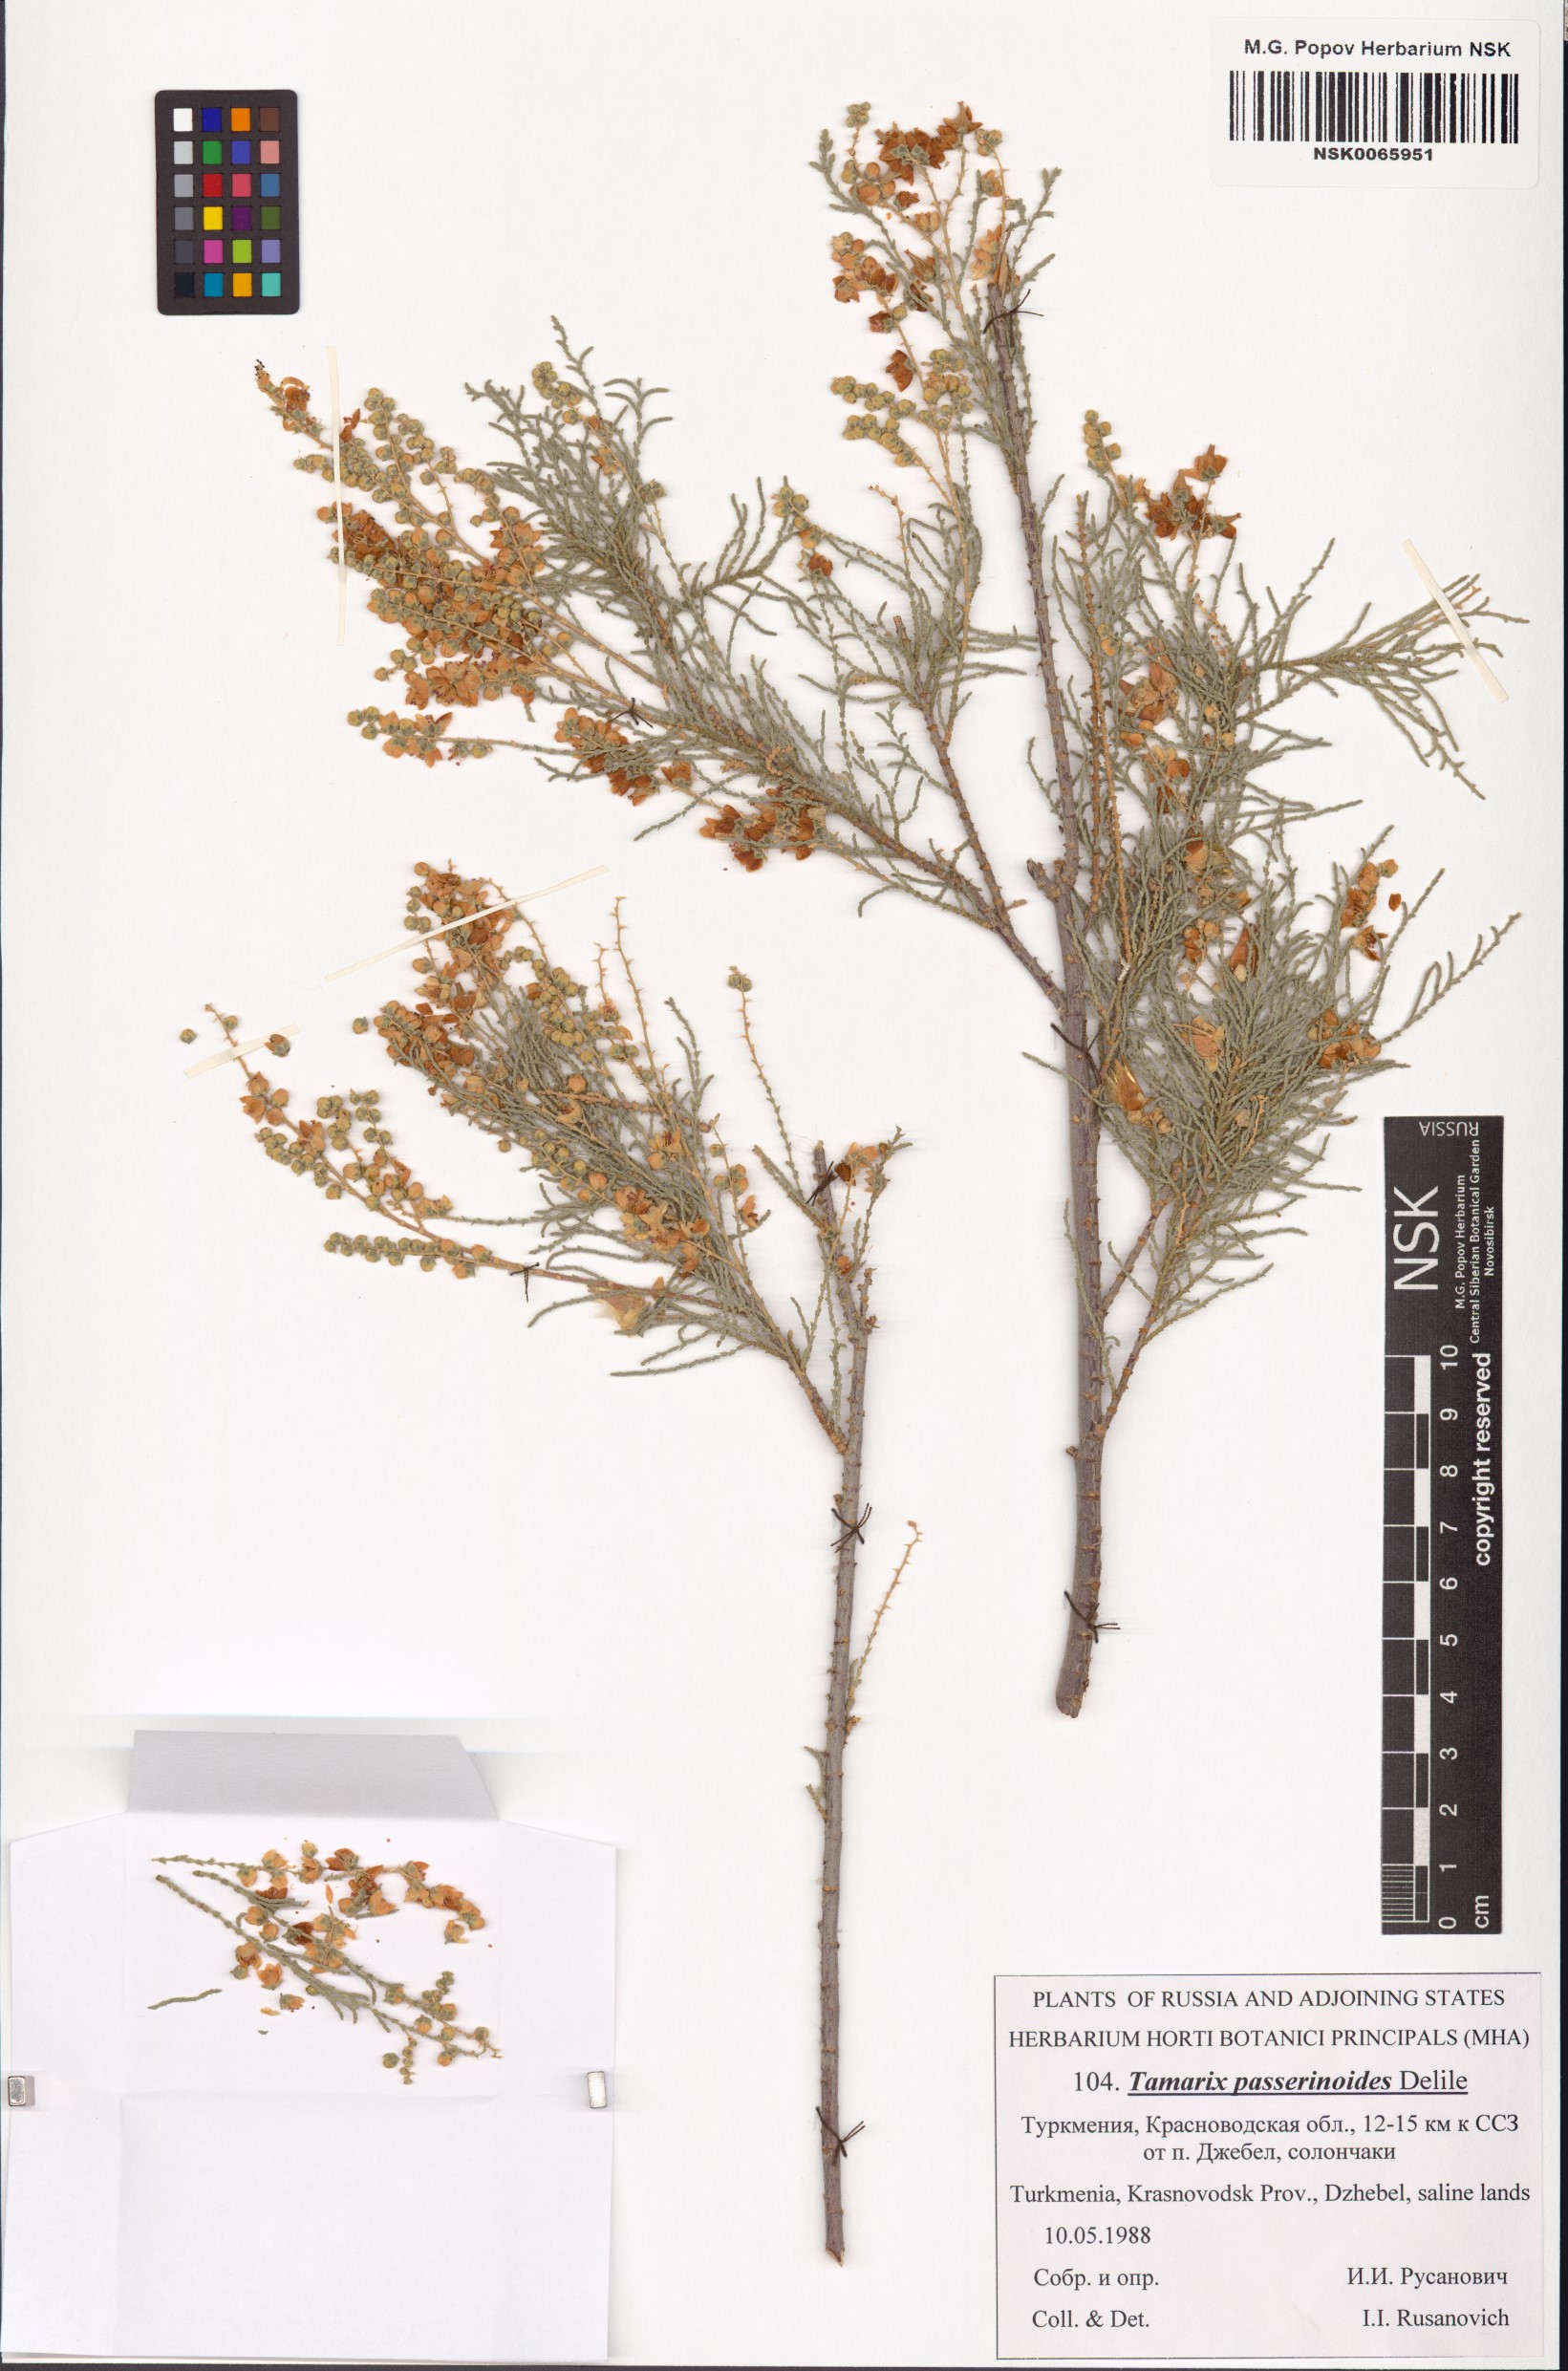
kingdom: Plantae
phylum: Tracheophyta
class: Magnoliopsida
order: Caryophyllales
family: Tamaricaceae
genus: Tamarix
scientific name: Tamarix passerinoides
